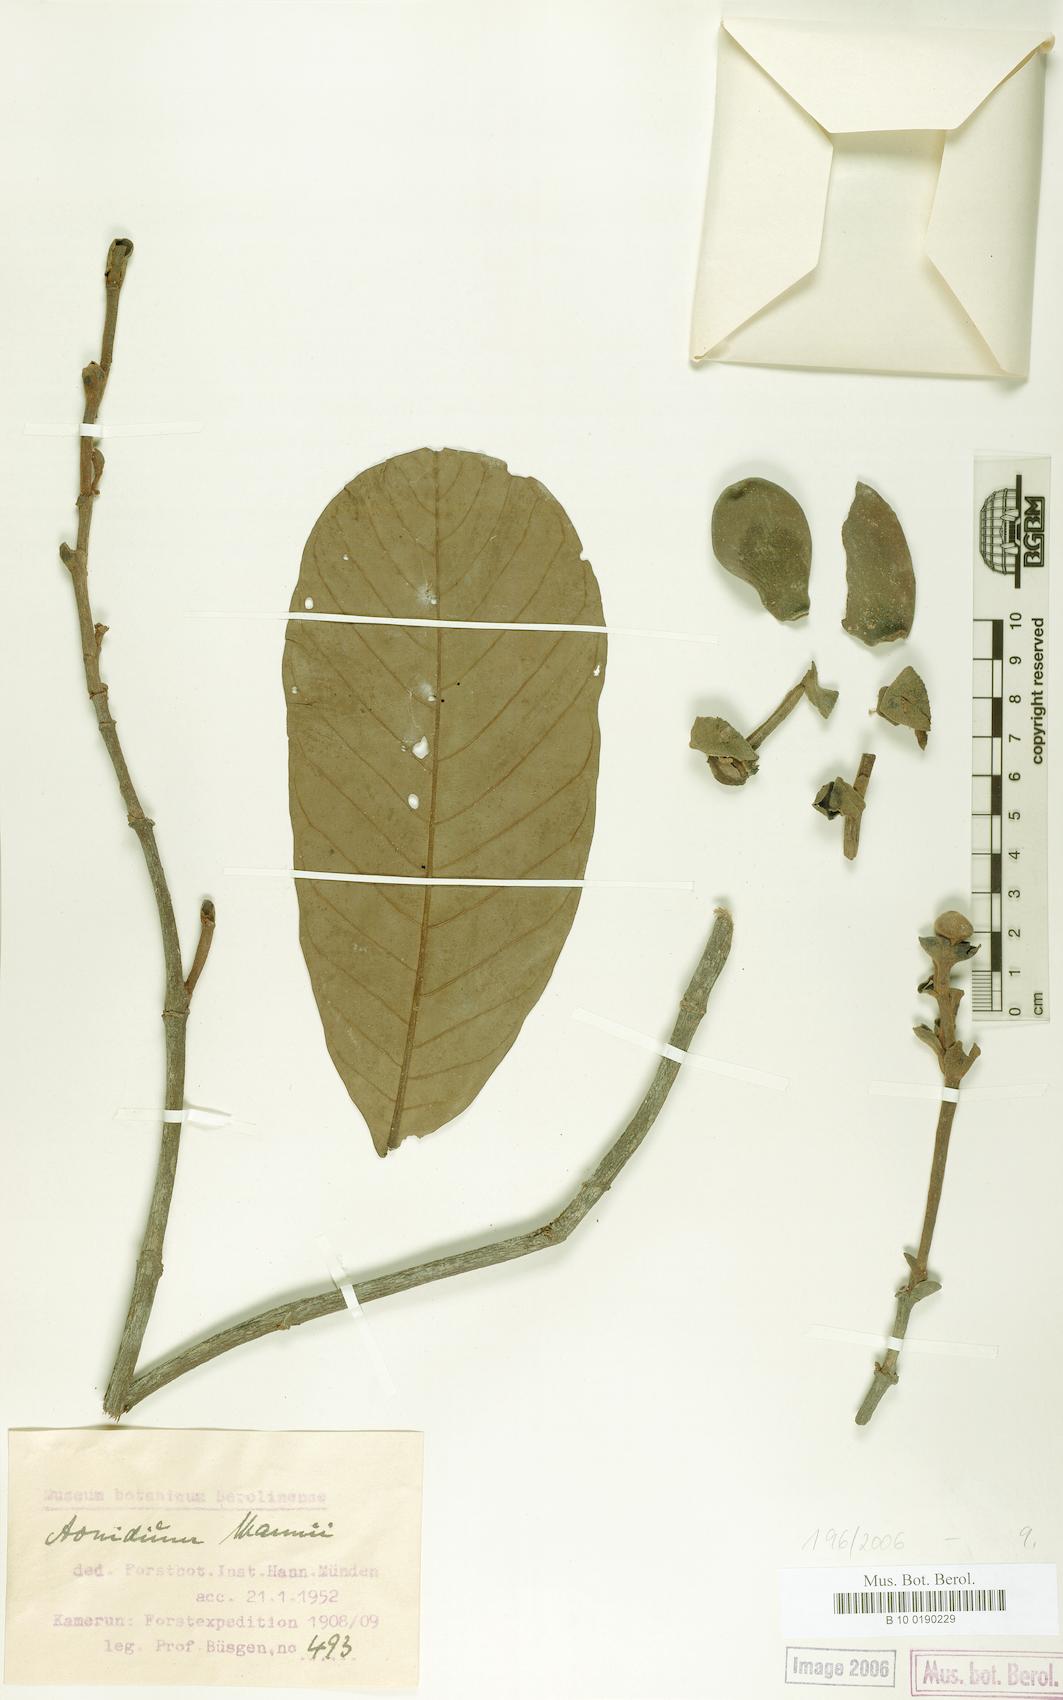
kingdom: Plantae
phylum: Tracheophyta
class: Magnoliopsida
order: Magnoliales
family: Annonaceae
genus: Anonidium
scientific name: Anonidium mannii
